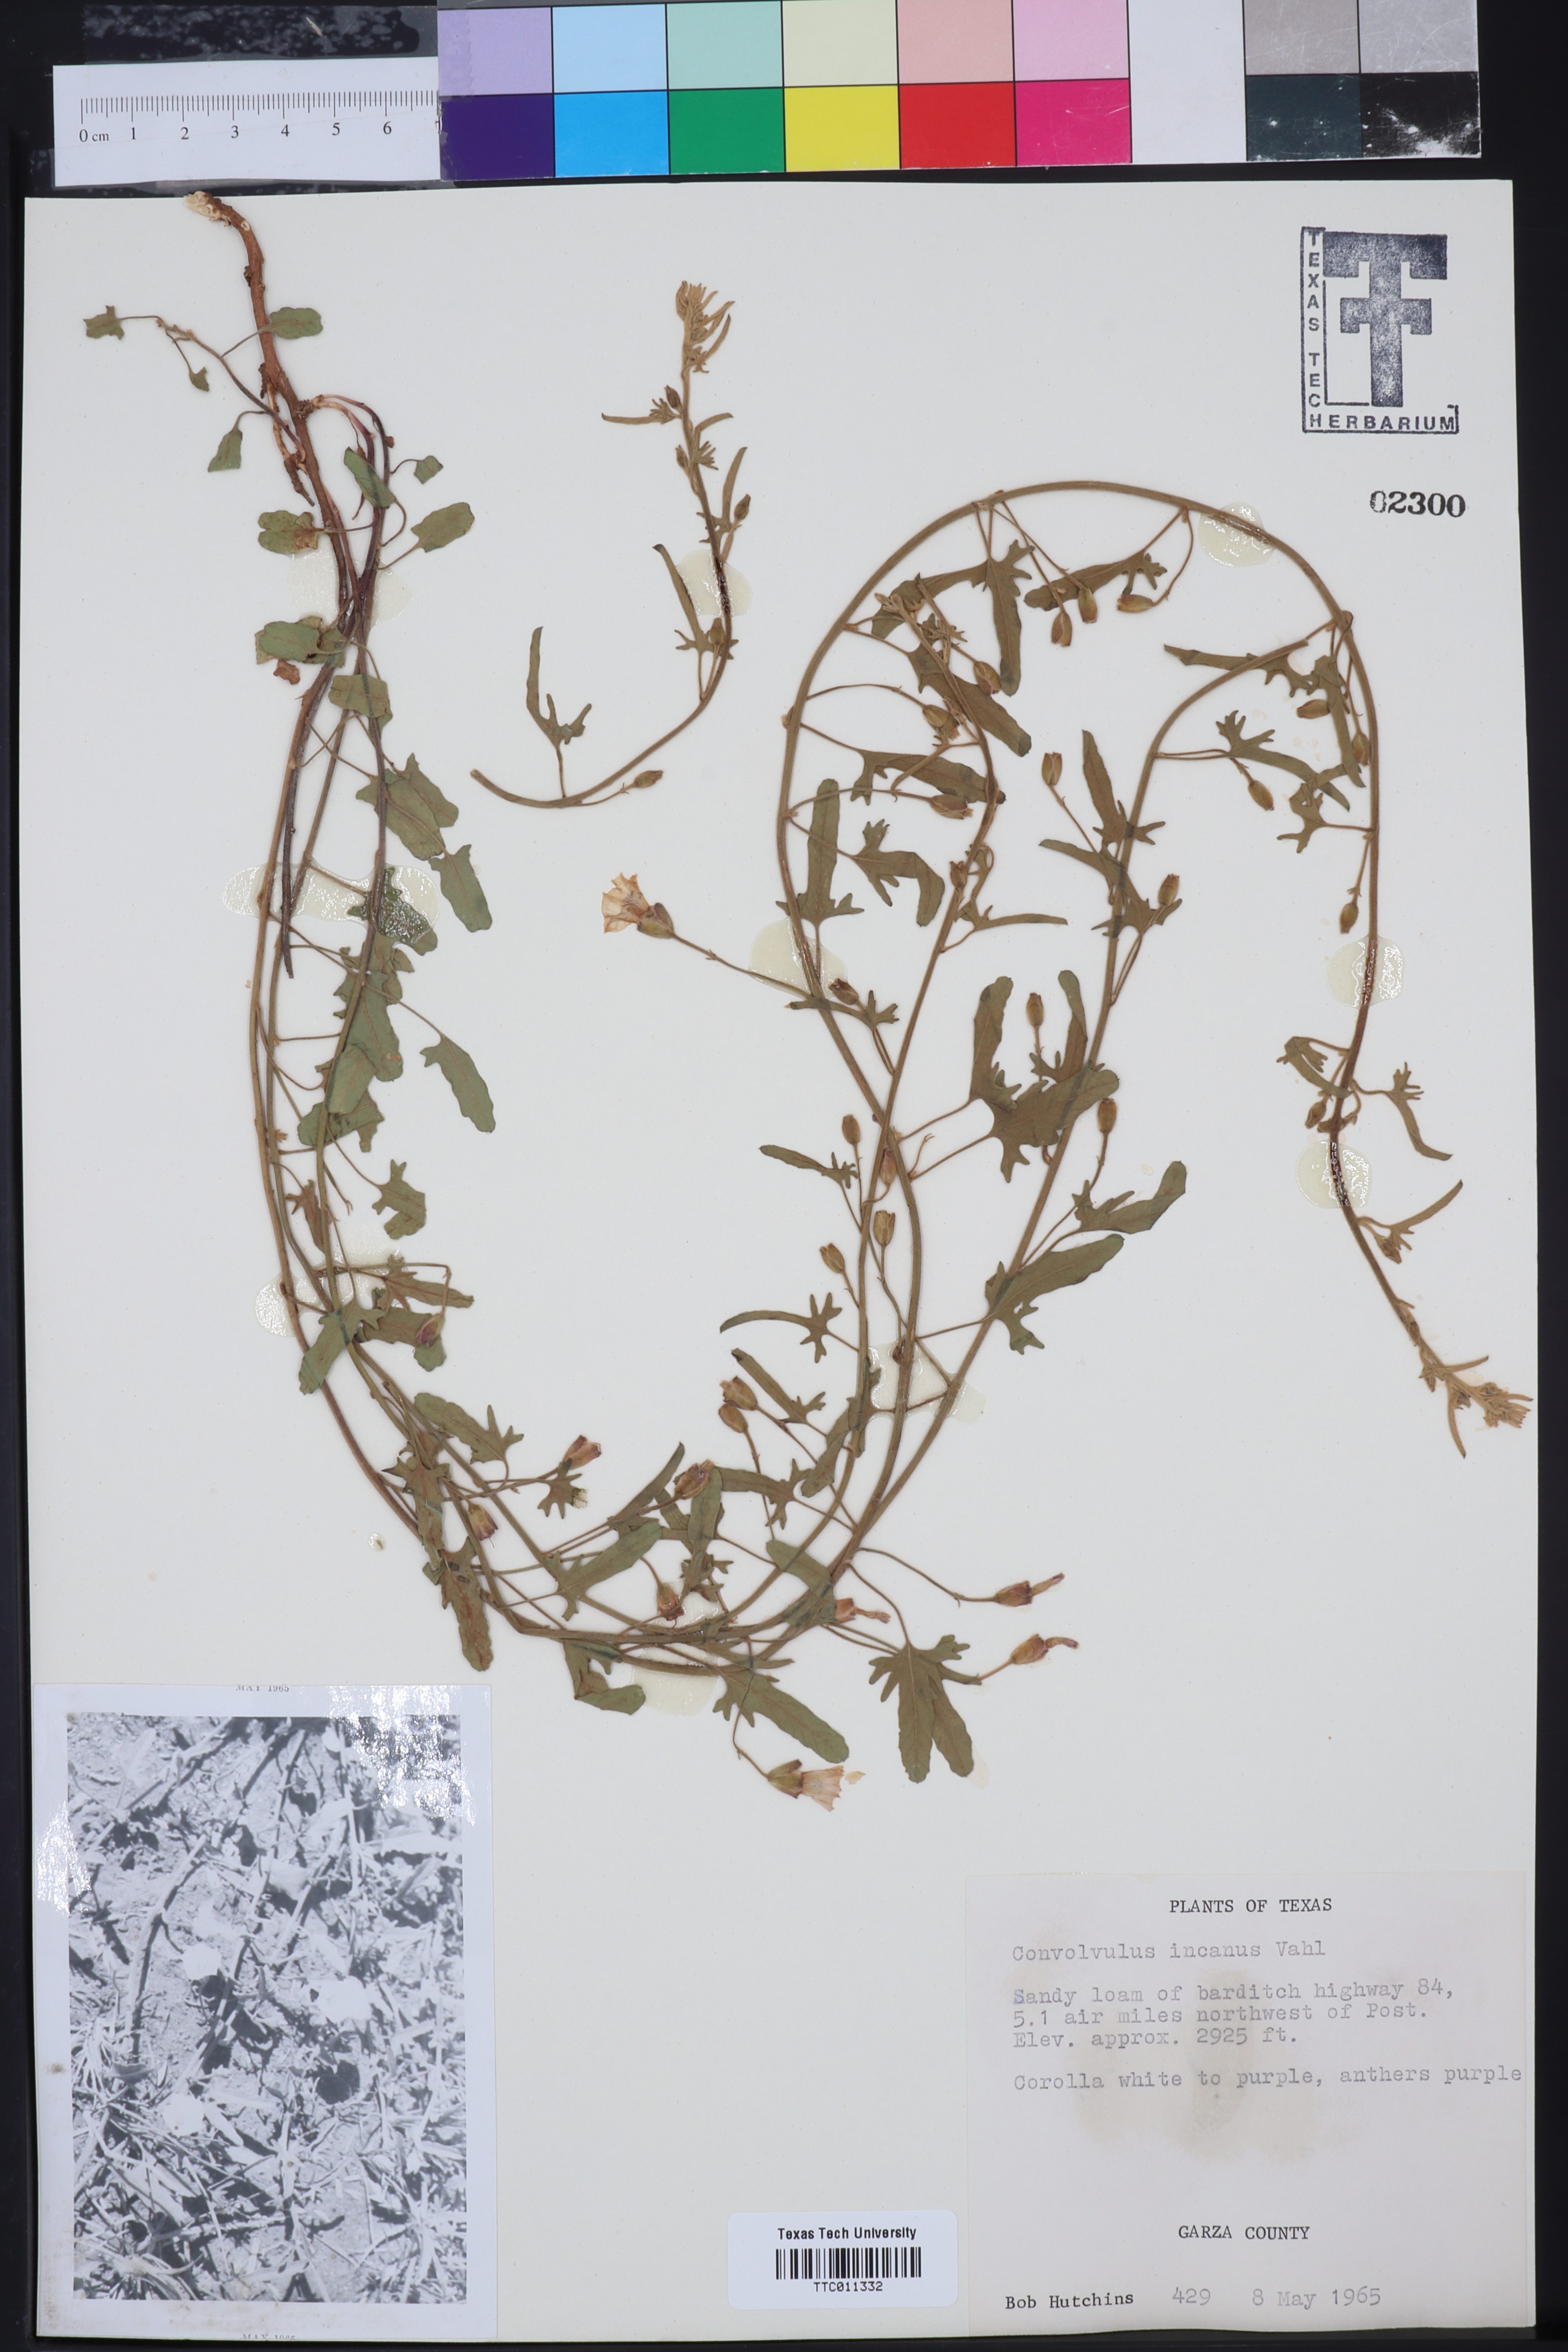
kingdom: Plantae
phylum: Tracheophyta
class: Magnoliopsida
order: Solanales
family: Convolvulaceae
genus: Convolvulus
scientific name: Convolvulus hermanniae
